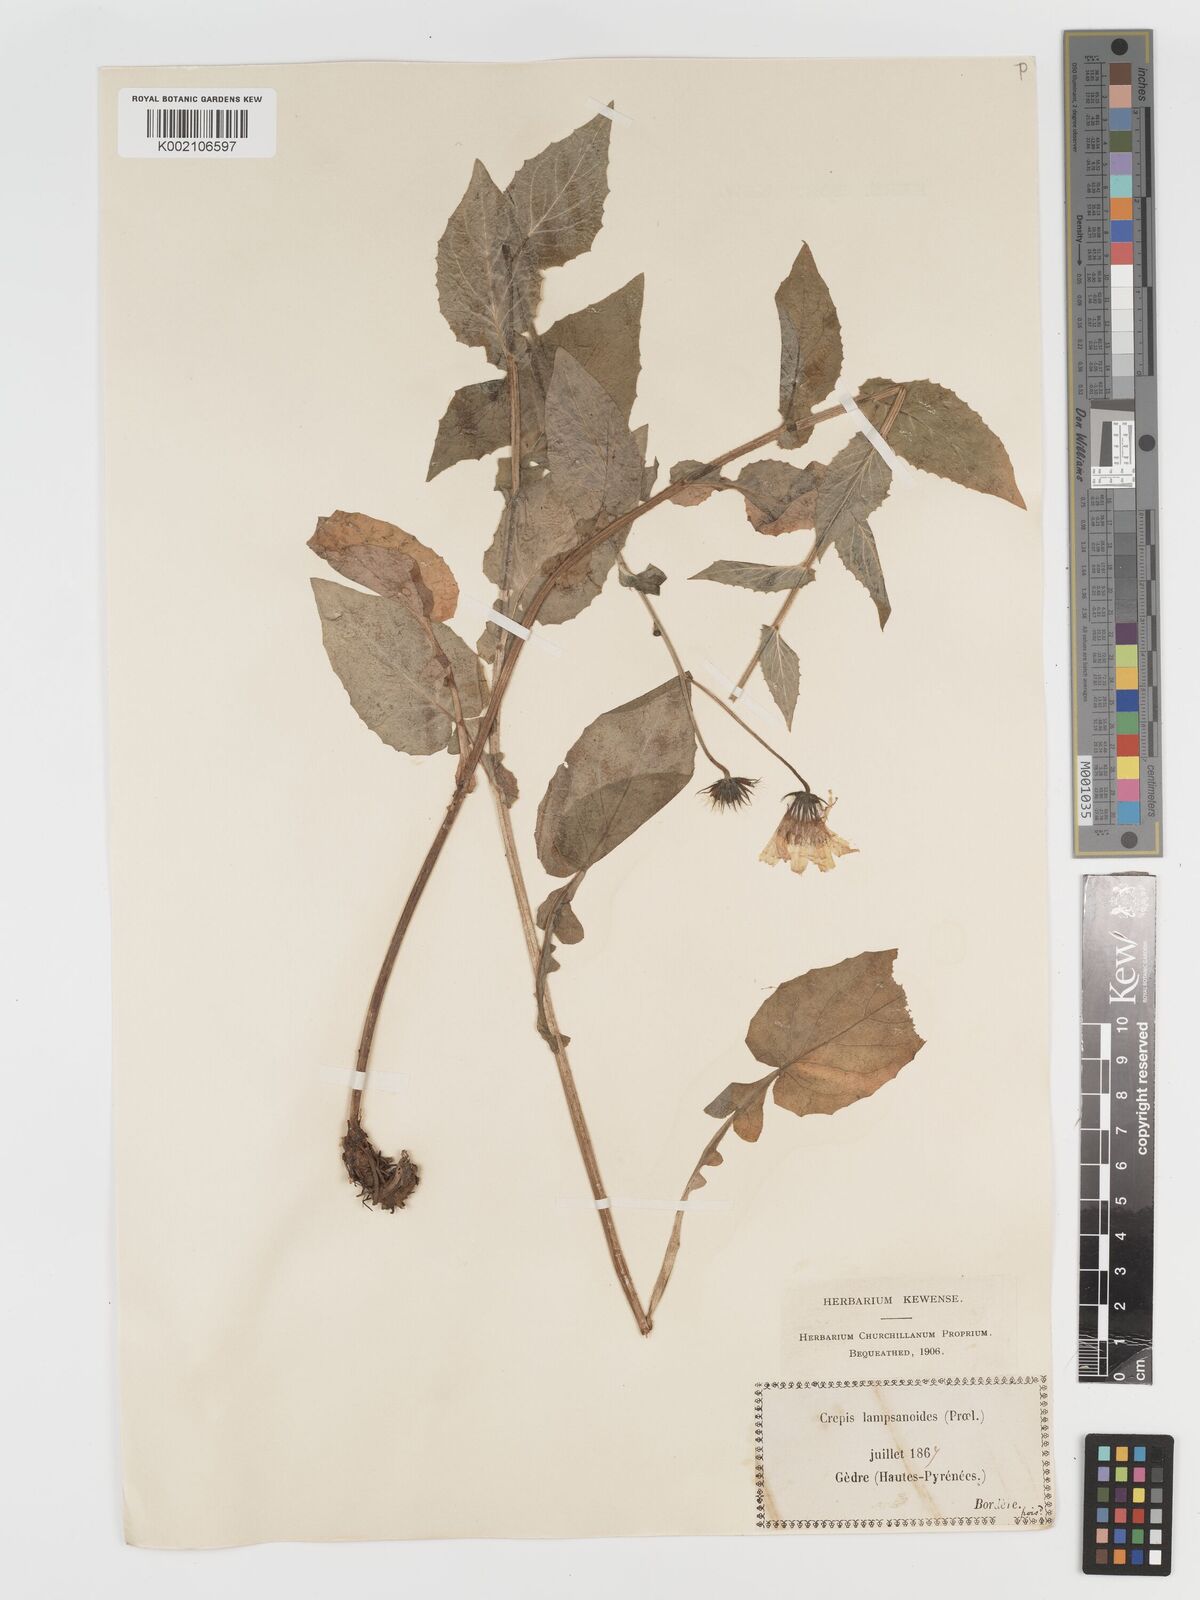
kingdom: Plantae
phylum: Tracheophyta
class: Magnoliopsida
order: Asterales
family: Asteraceae
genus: Crepis
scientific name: Crepis lampsanoides
